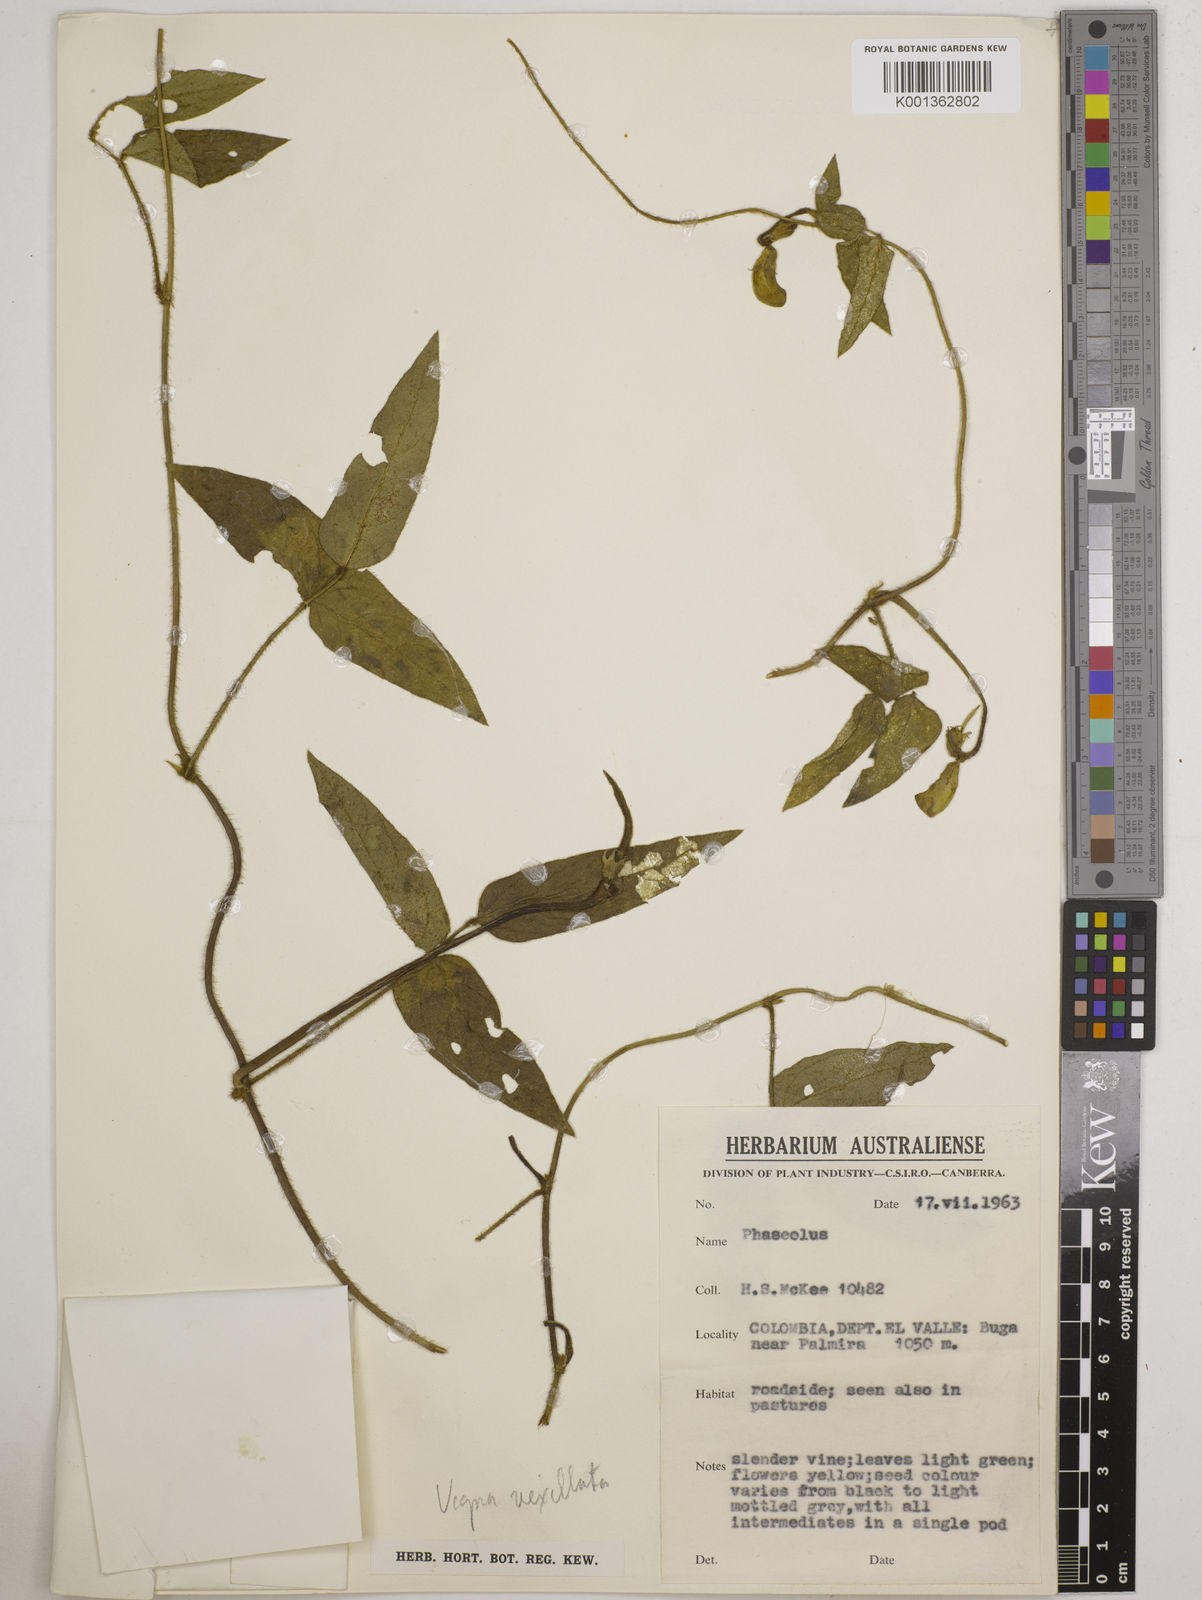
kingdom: Plantae
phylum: Tracheophyta
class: Magnoliopsida
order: Fabales
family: Fabaceae
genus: Vigna
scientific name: Vigna vexillata
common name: Zombi pea
